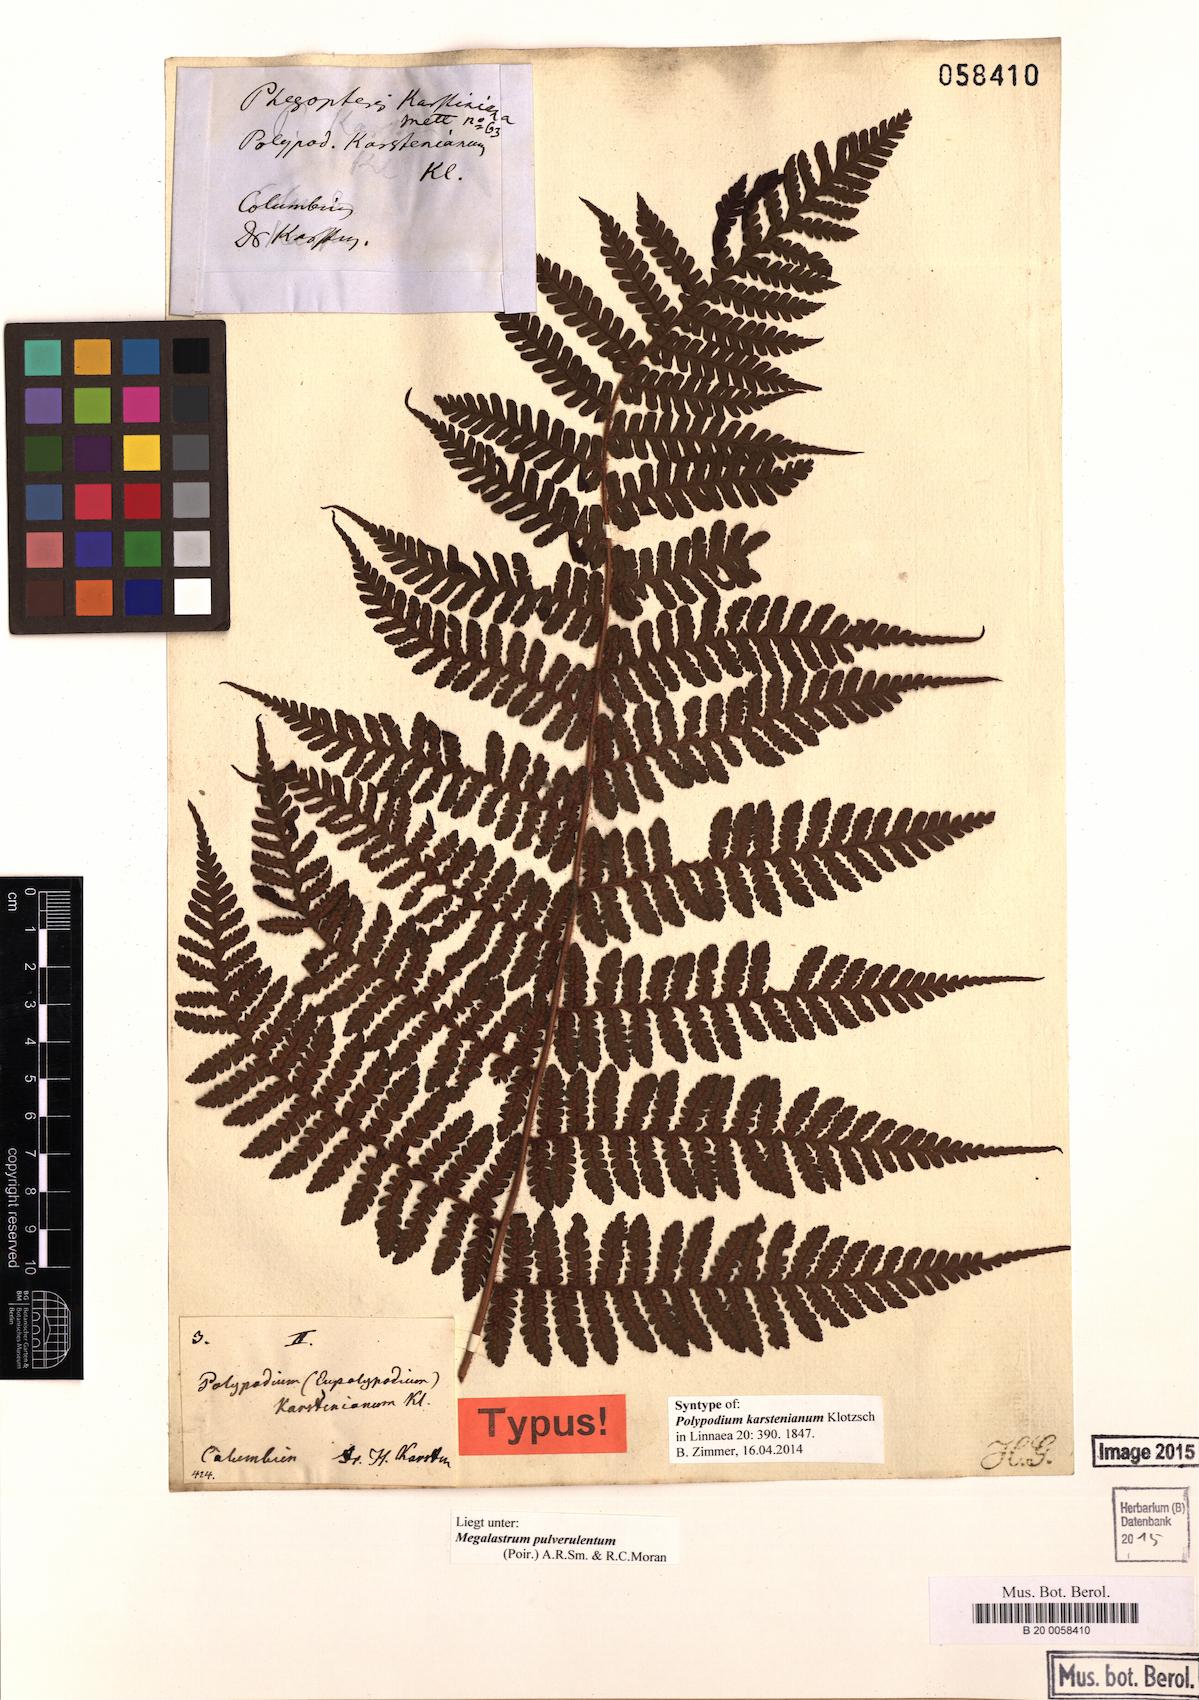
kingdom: Plantae
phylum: Tracheophyta
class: Polypodiopsida
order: Polypodiales
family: Dryopteridaceae
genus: Megalastrum
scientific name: Megalastrum pulverulentum
